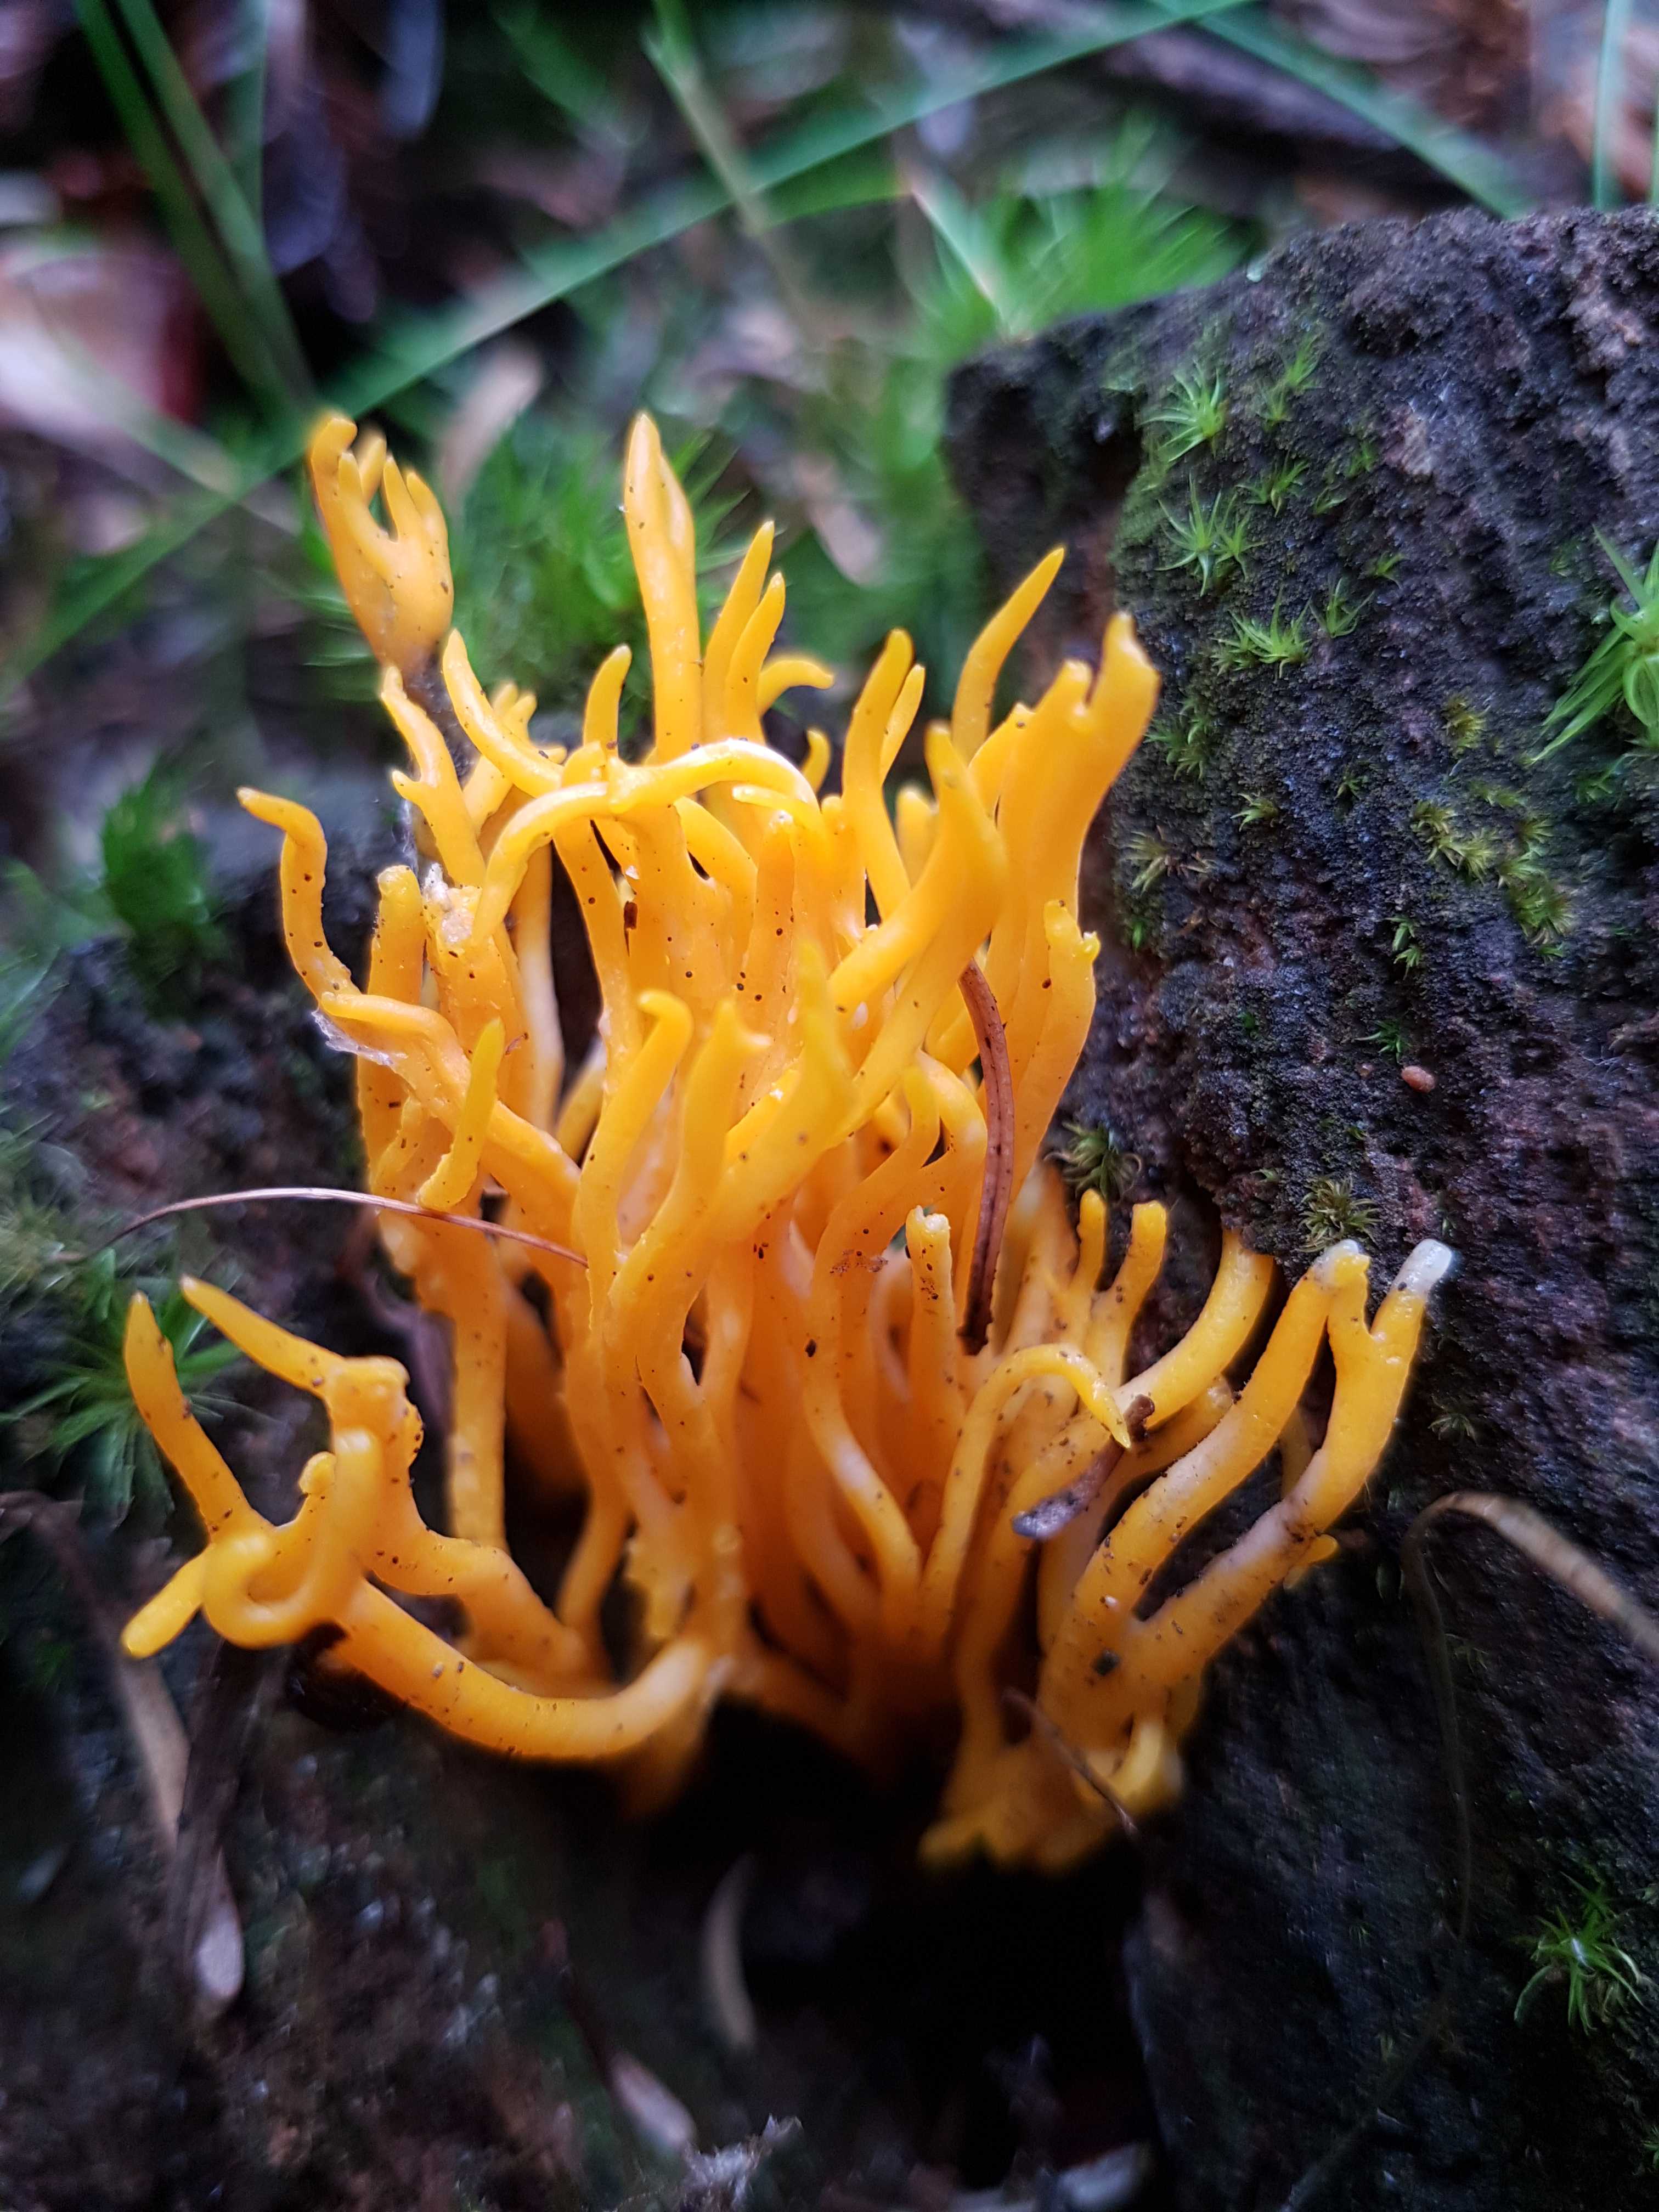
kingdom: Fungi
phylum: Basidiomycota
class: Dacrymycetes
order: Dacrymycetales
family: Dacrymycetaceae
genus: Calocera
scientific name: Calocera viscosa
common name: almindelig guldgaffel
